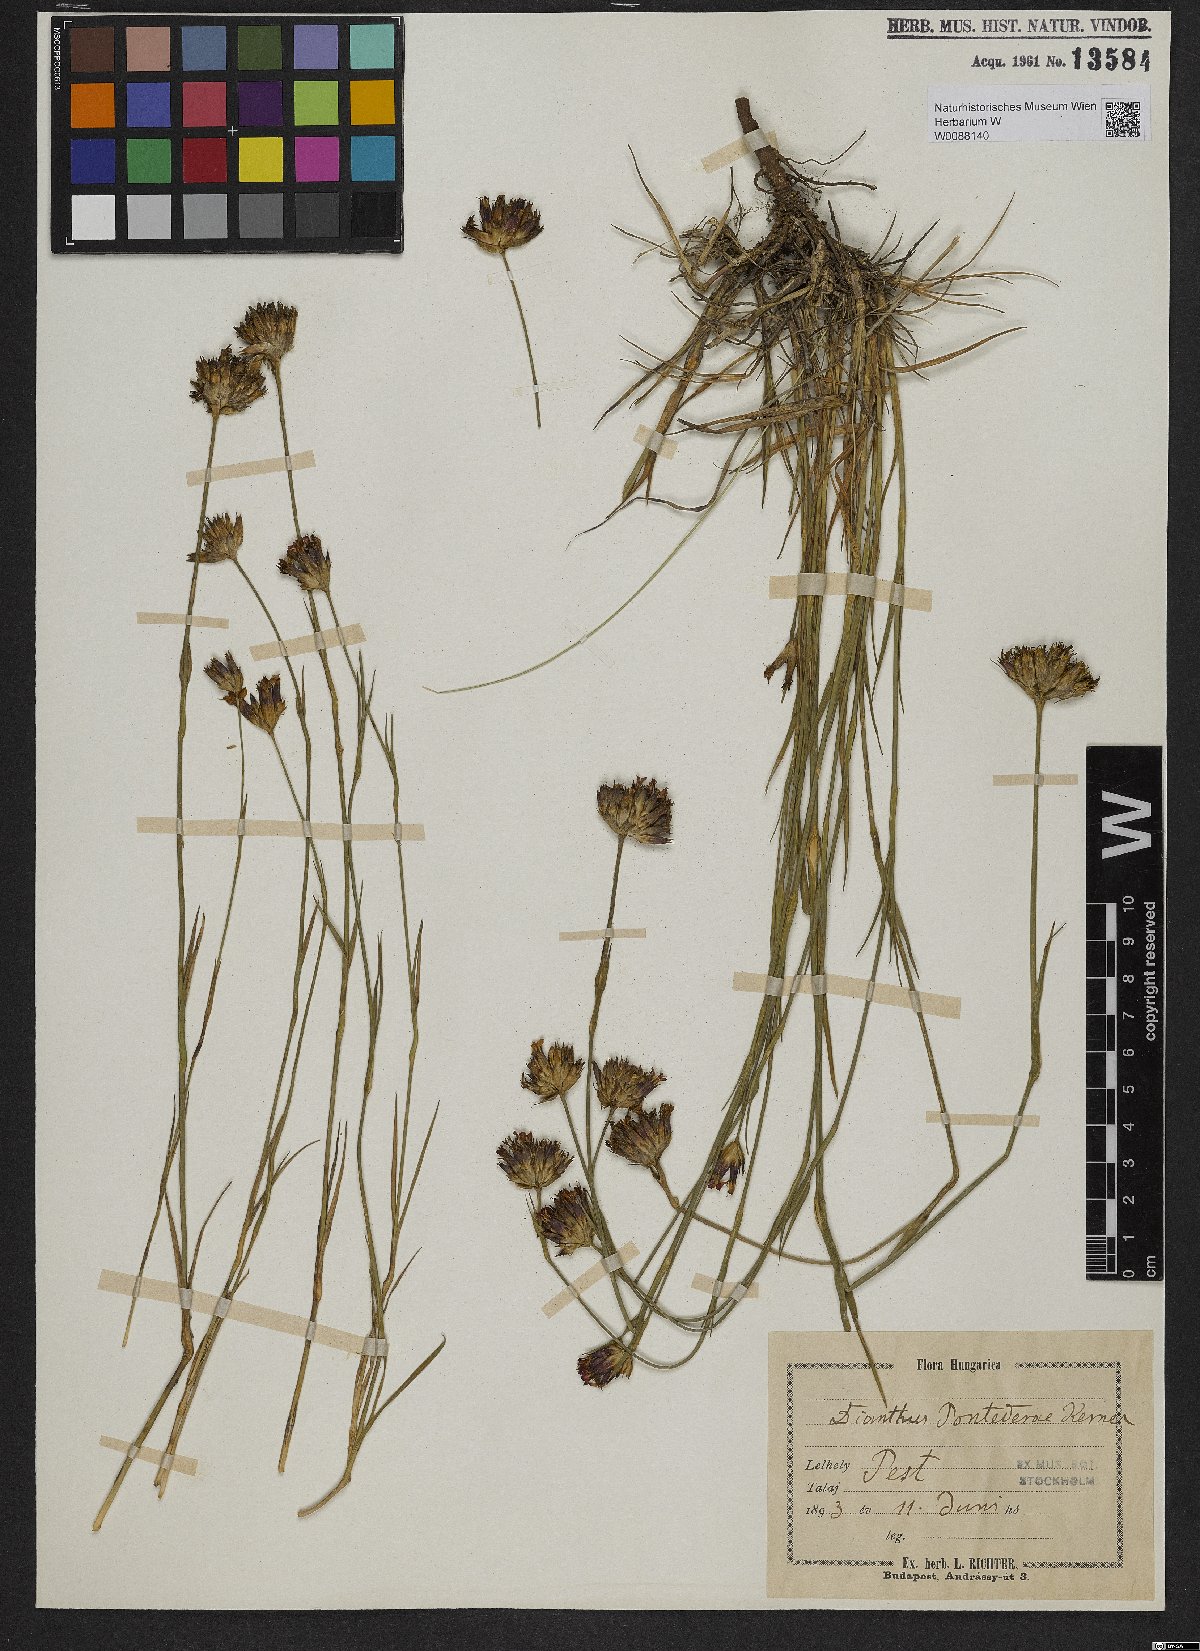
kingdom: Plantae
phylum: Tracheophyta
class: Magnoliopsida
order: Caryophyllales
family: Caryophyllaceae
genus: Dianthus
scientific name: Dianthus pontederae
